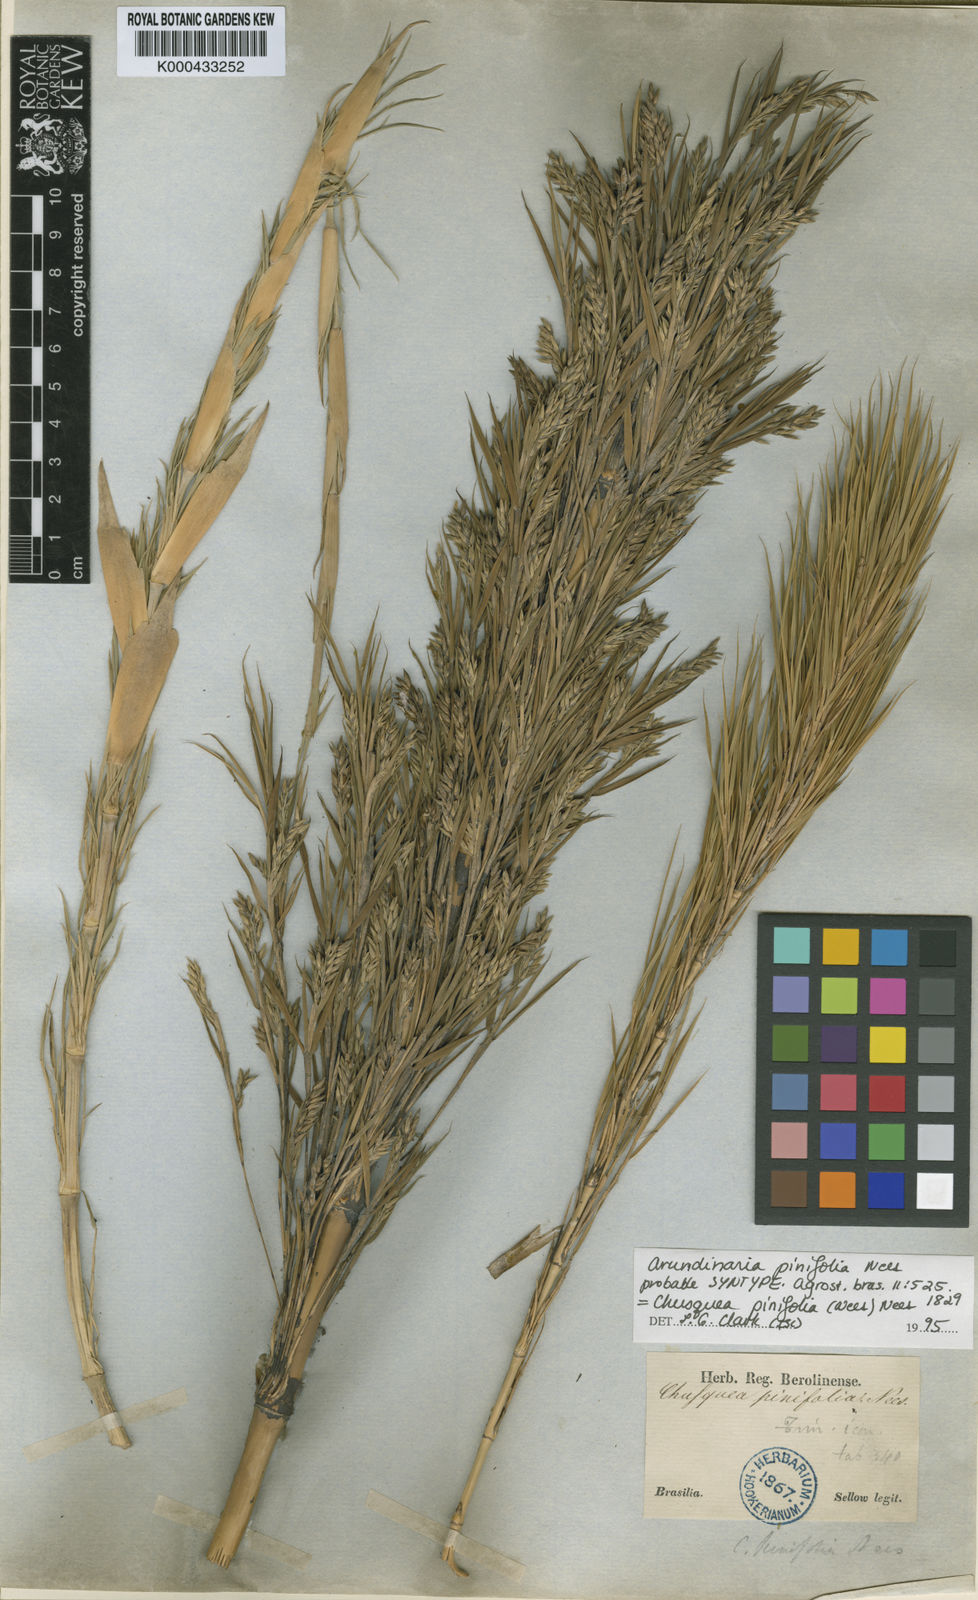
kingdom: Plantae
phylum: Tracheophyta
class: Liliopsida
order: Poales
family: Poaceae
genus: Chusquea
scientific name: Chusquea pinifolia
